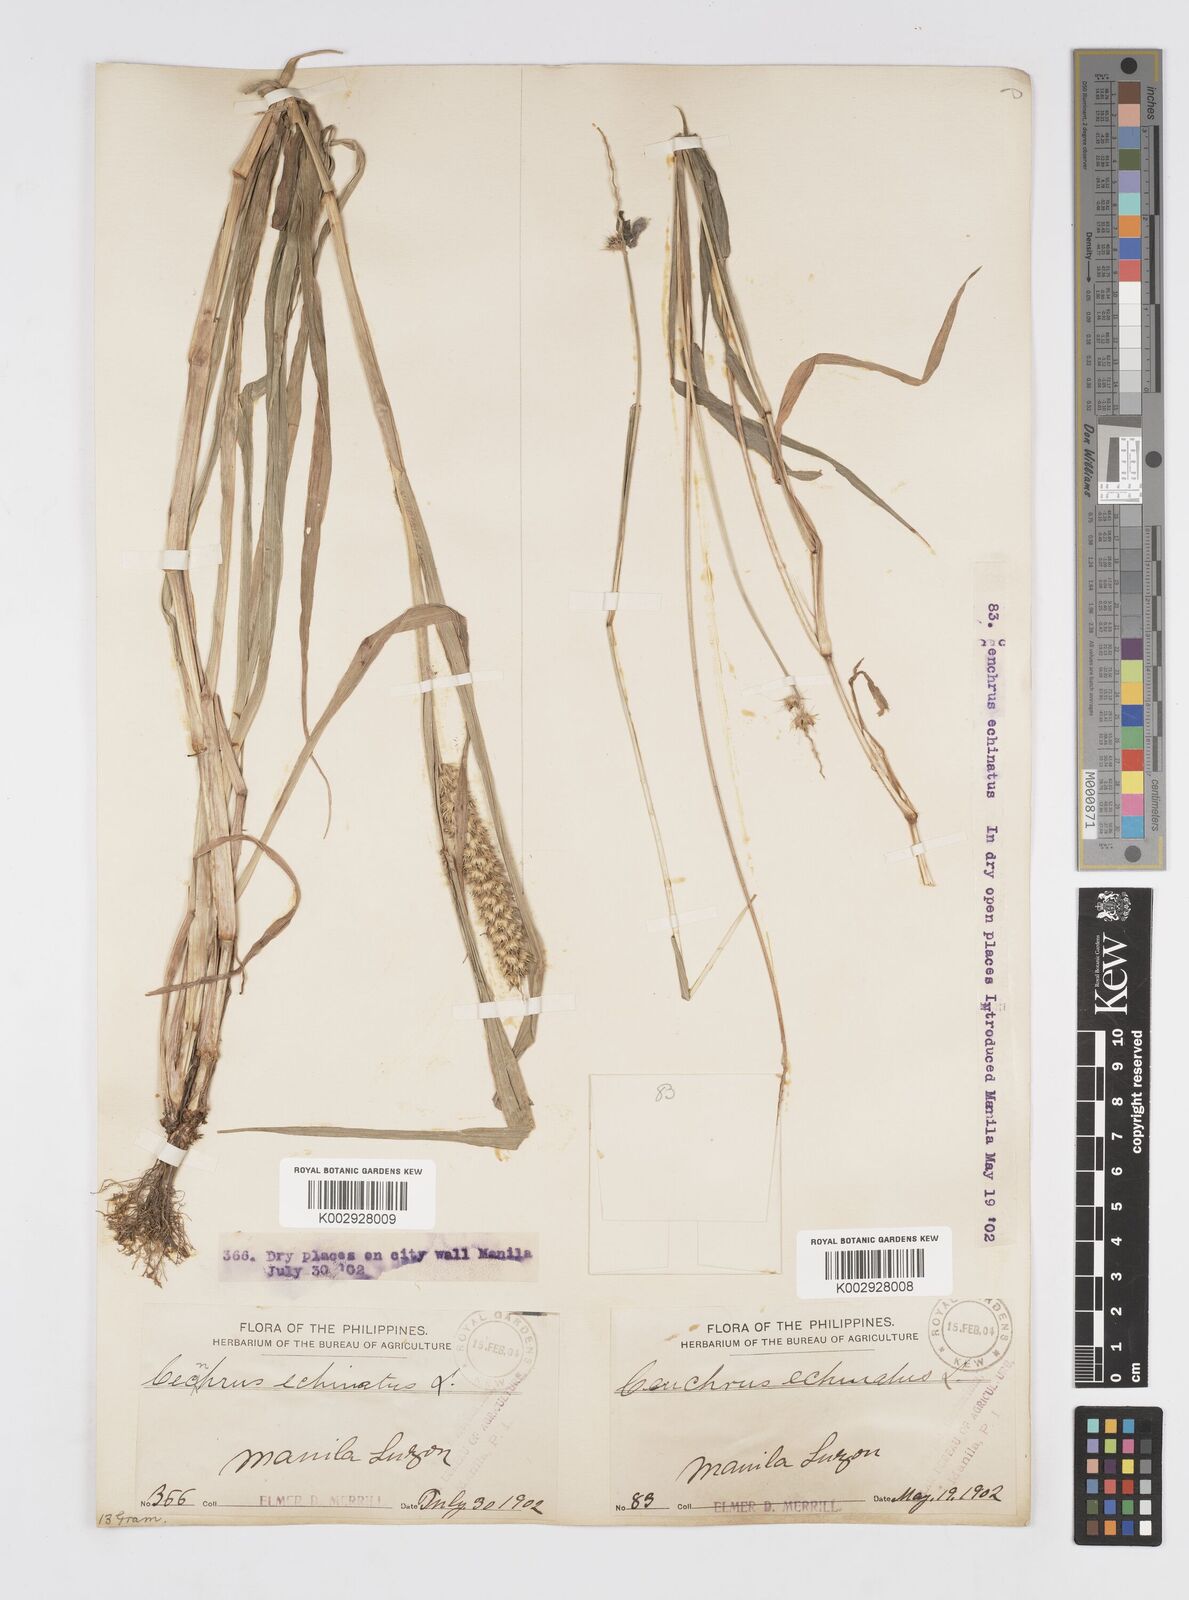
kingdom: Plantae
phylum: Tracheophyta
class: Liliopsida
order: Poales
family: Poaceae
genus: Cenchrus
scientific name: Cenchrus brownii
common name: Slim-bristle sandbur
